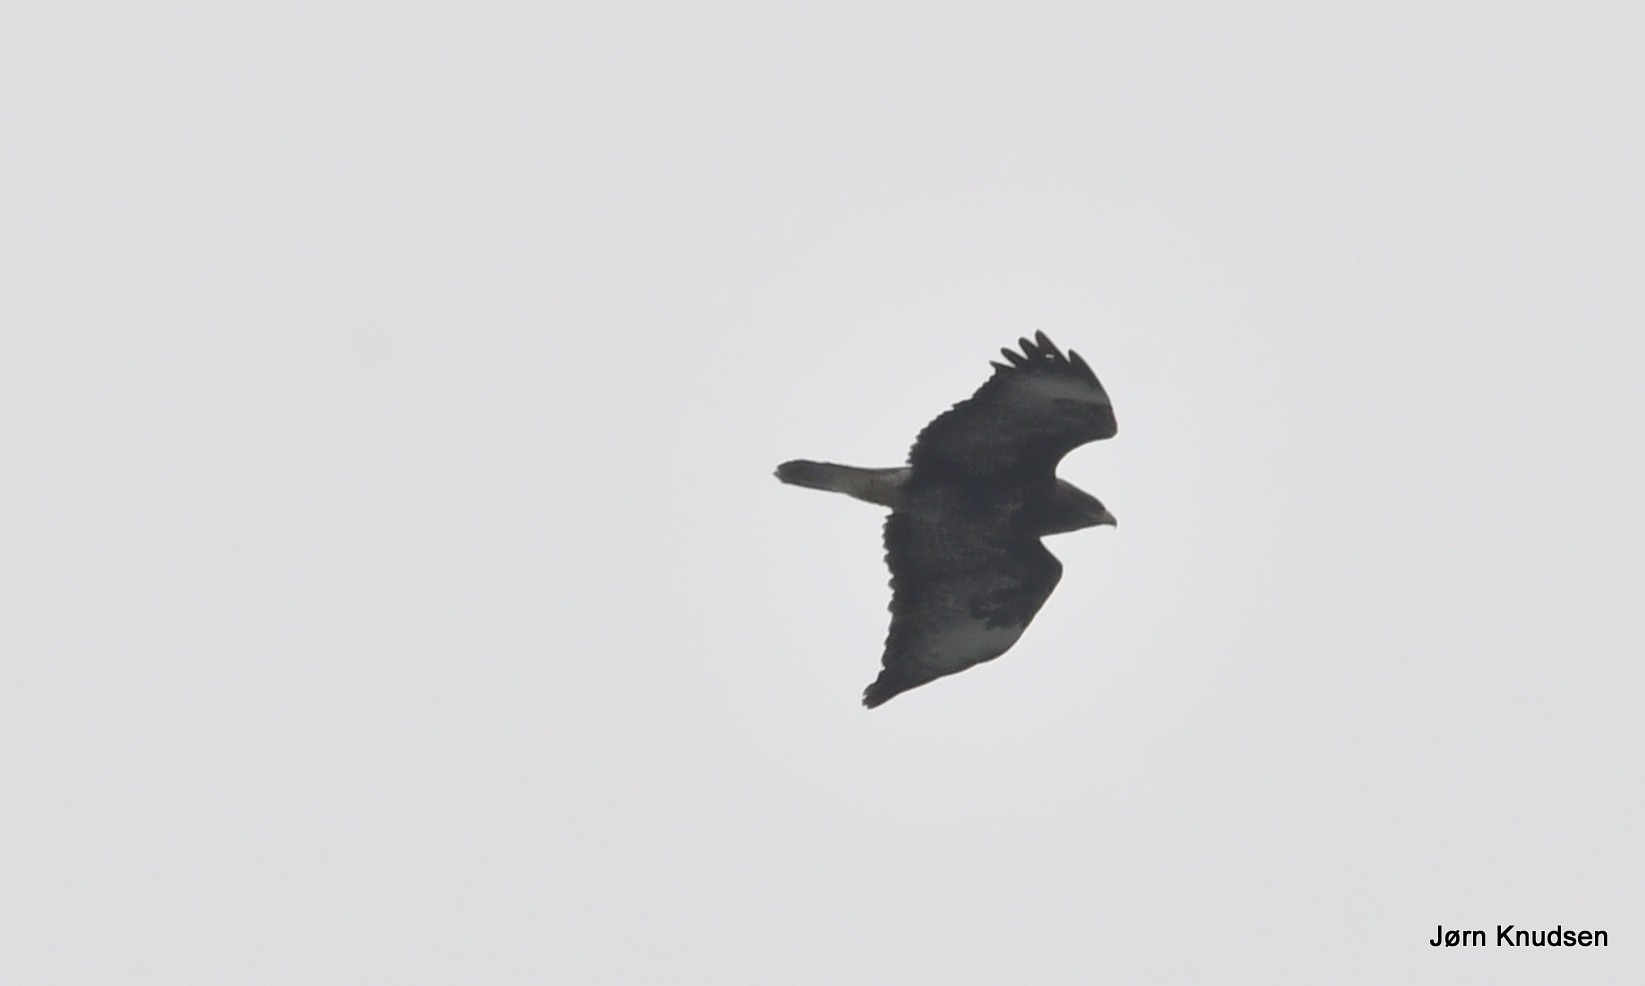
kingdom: Animalia
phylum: Chordata
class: Aves
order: Accipitriformes
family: Accipitridae
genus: Buteo
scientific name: Buteo buteo
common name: Musvåge
